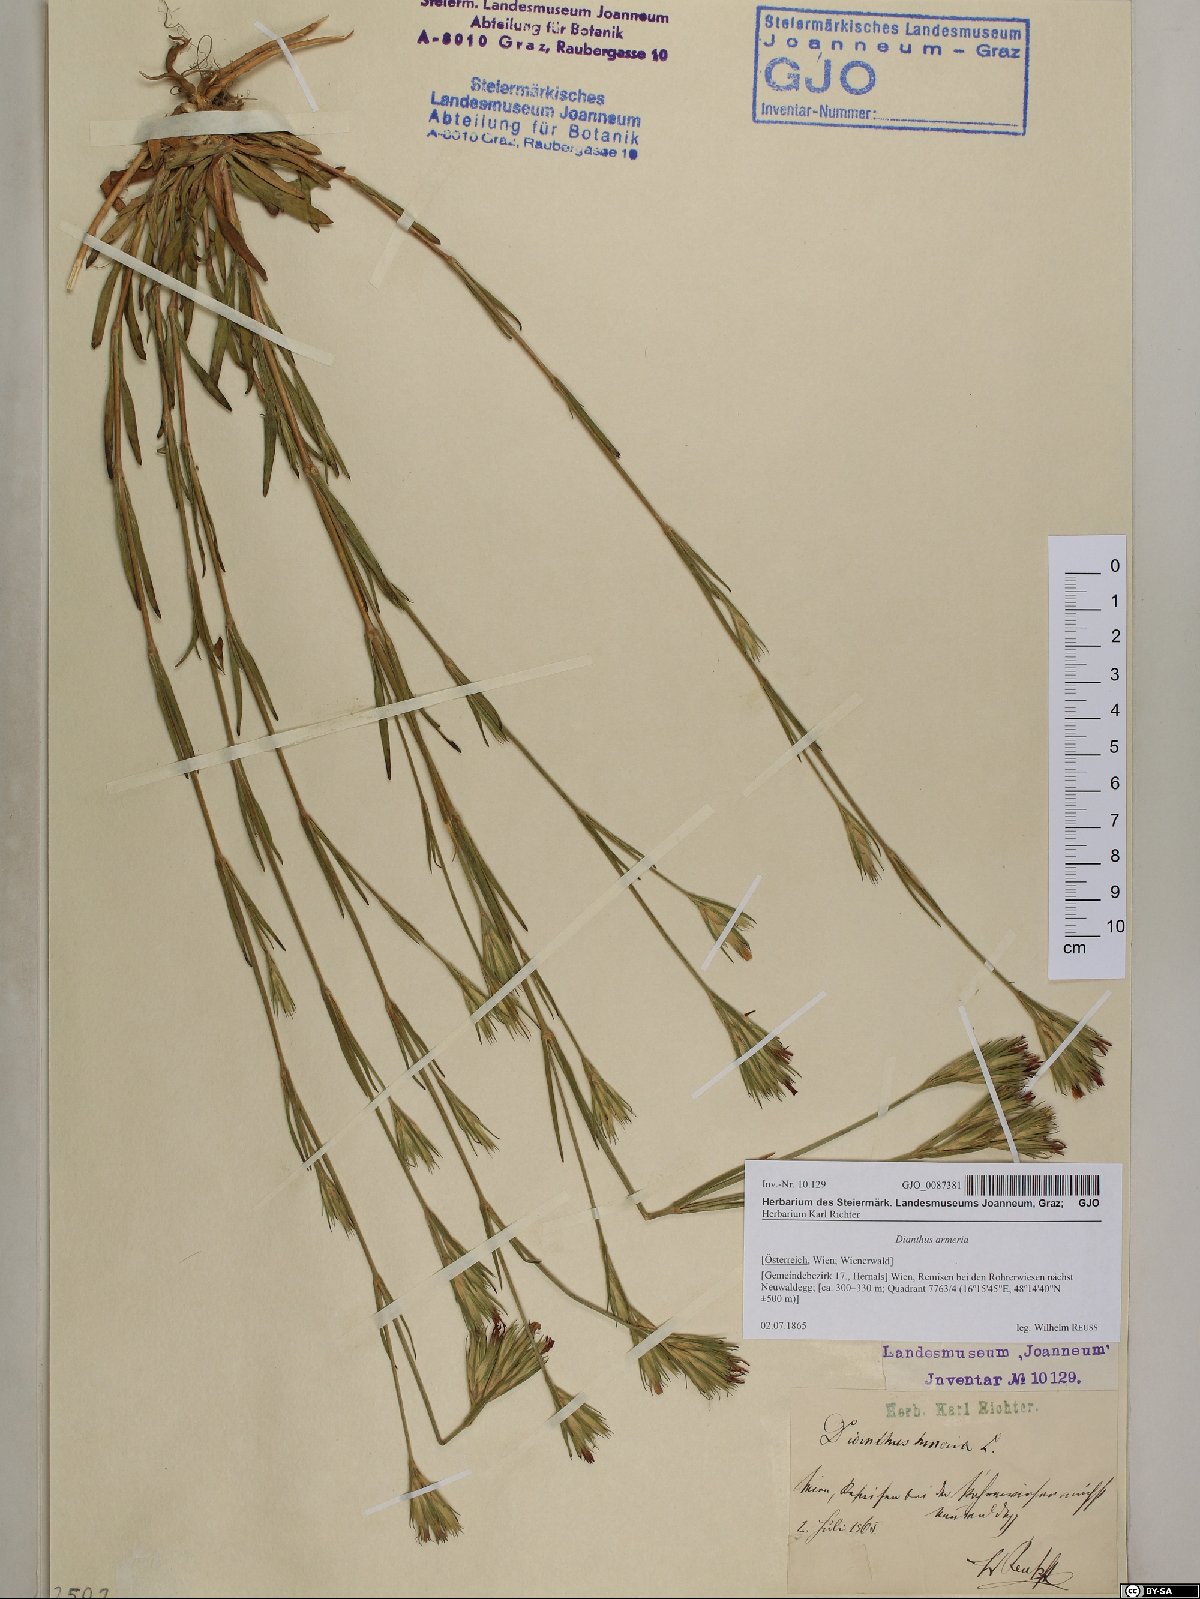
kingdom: Plantae
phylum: Tracheophyta
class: Magnoliopsida
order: Caryophyllales
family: Caryophyllaceae
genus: Dianthus
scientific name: Dianthus armeria
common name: Deptford pink
